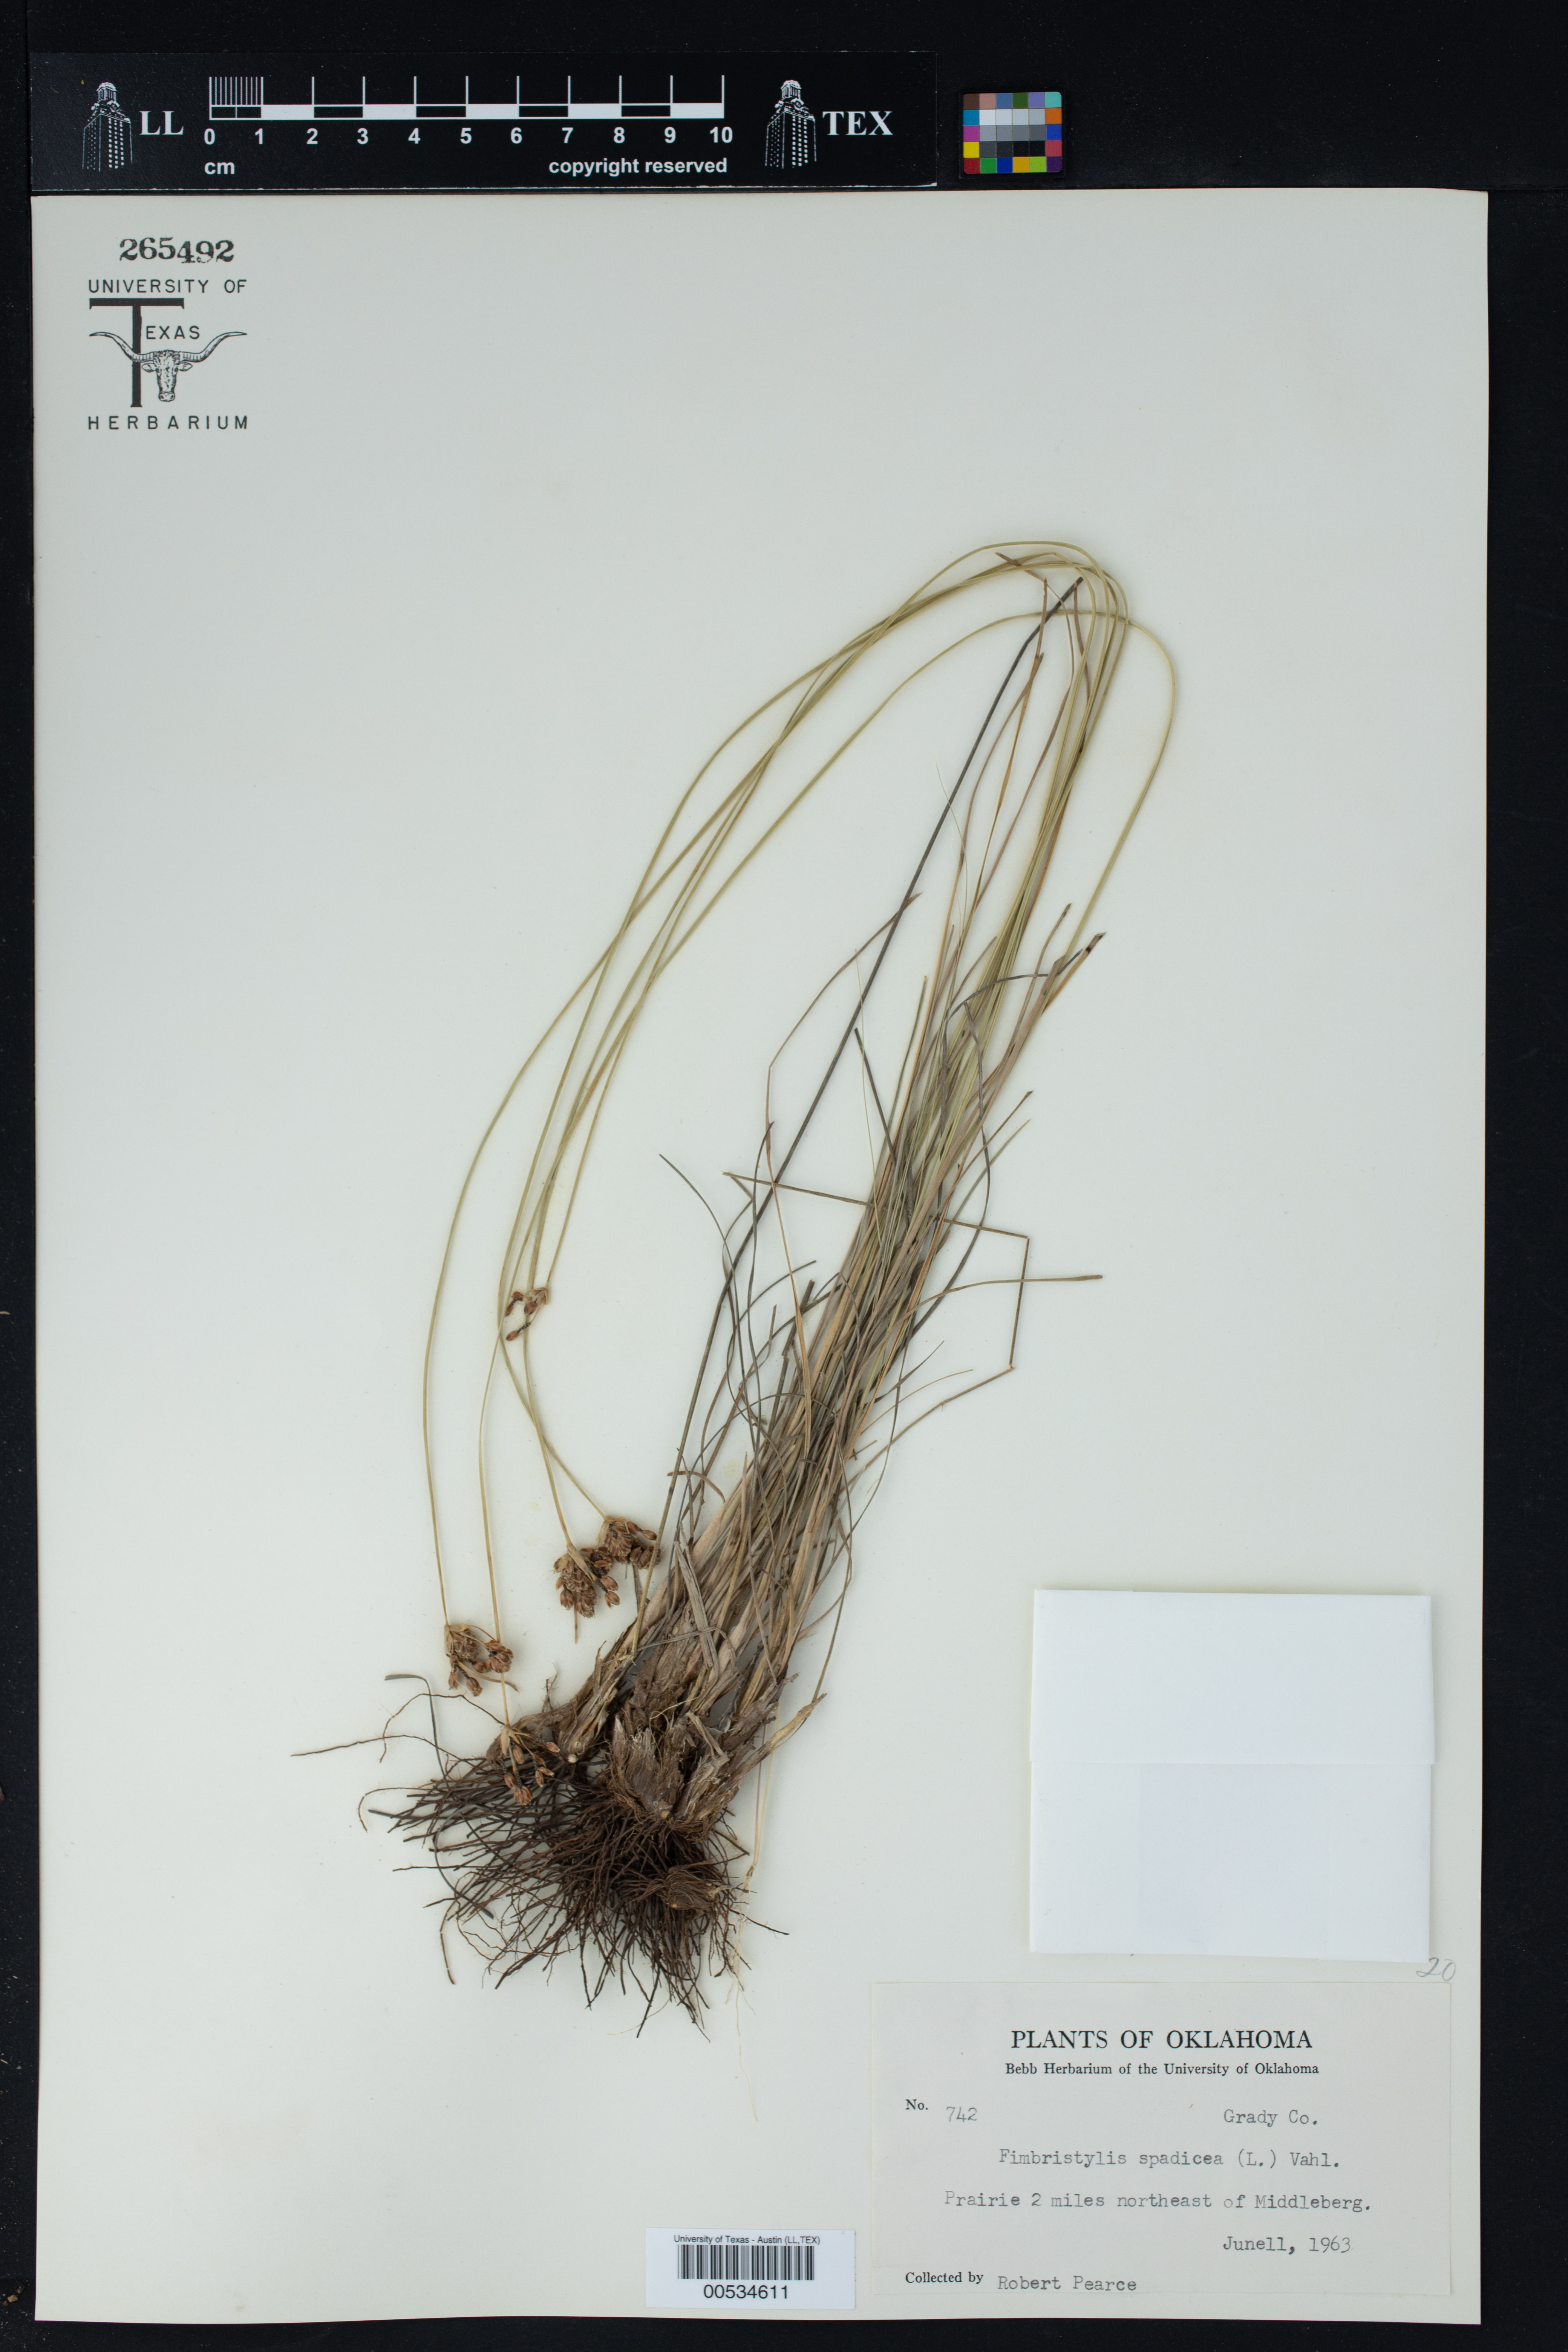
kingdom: Plantae
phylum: Tracheophyta
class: Liliopsida
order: Poales
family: Cyperaceae
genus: Fimbristylis
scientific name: Fimbristylis spadicea
